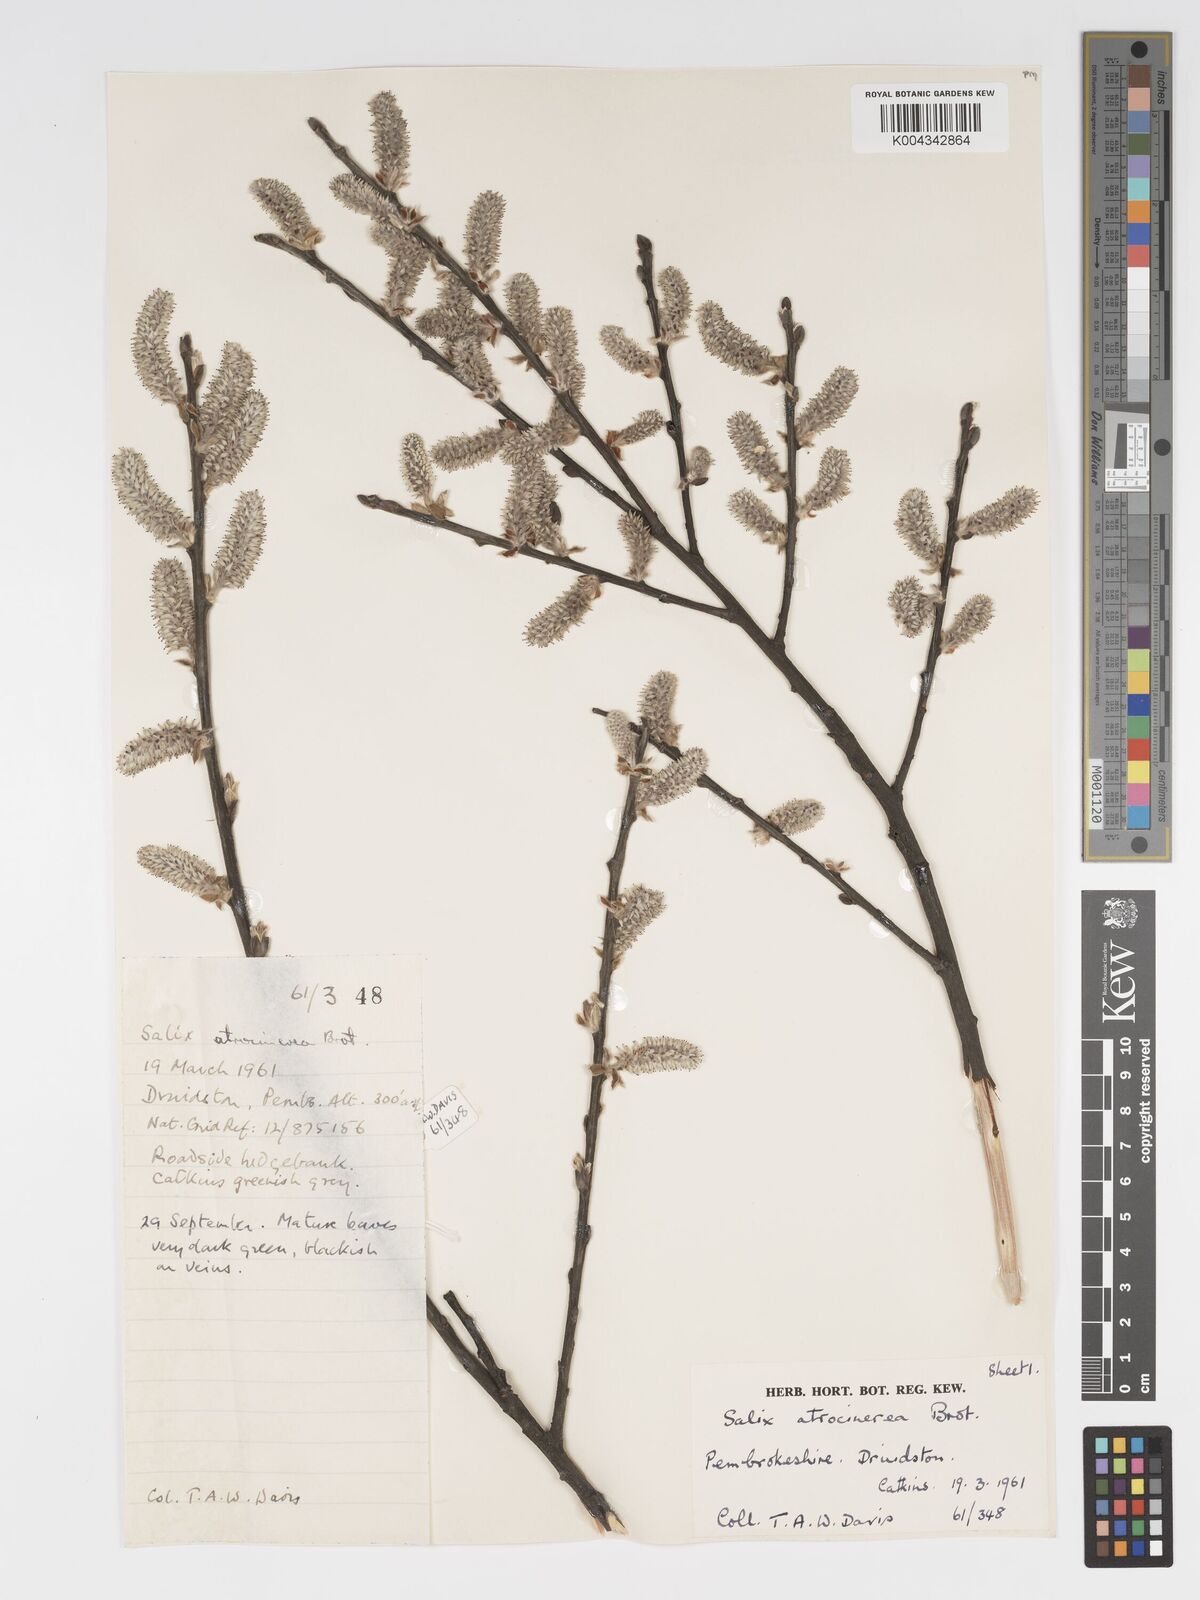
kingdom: Plantae
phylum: Tracheophyta
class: Magnoliopsida
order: Malpighiales
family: Salicaceae
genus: Salix
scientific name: Salix atrocinerea
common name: Rusty willow
